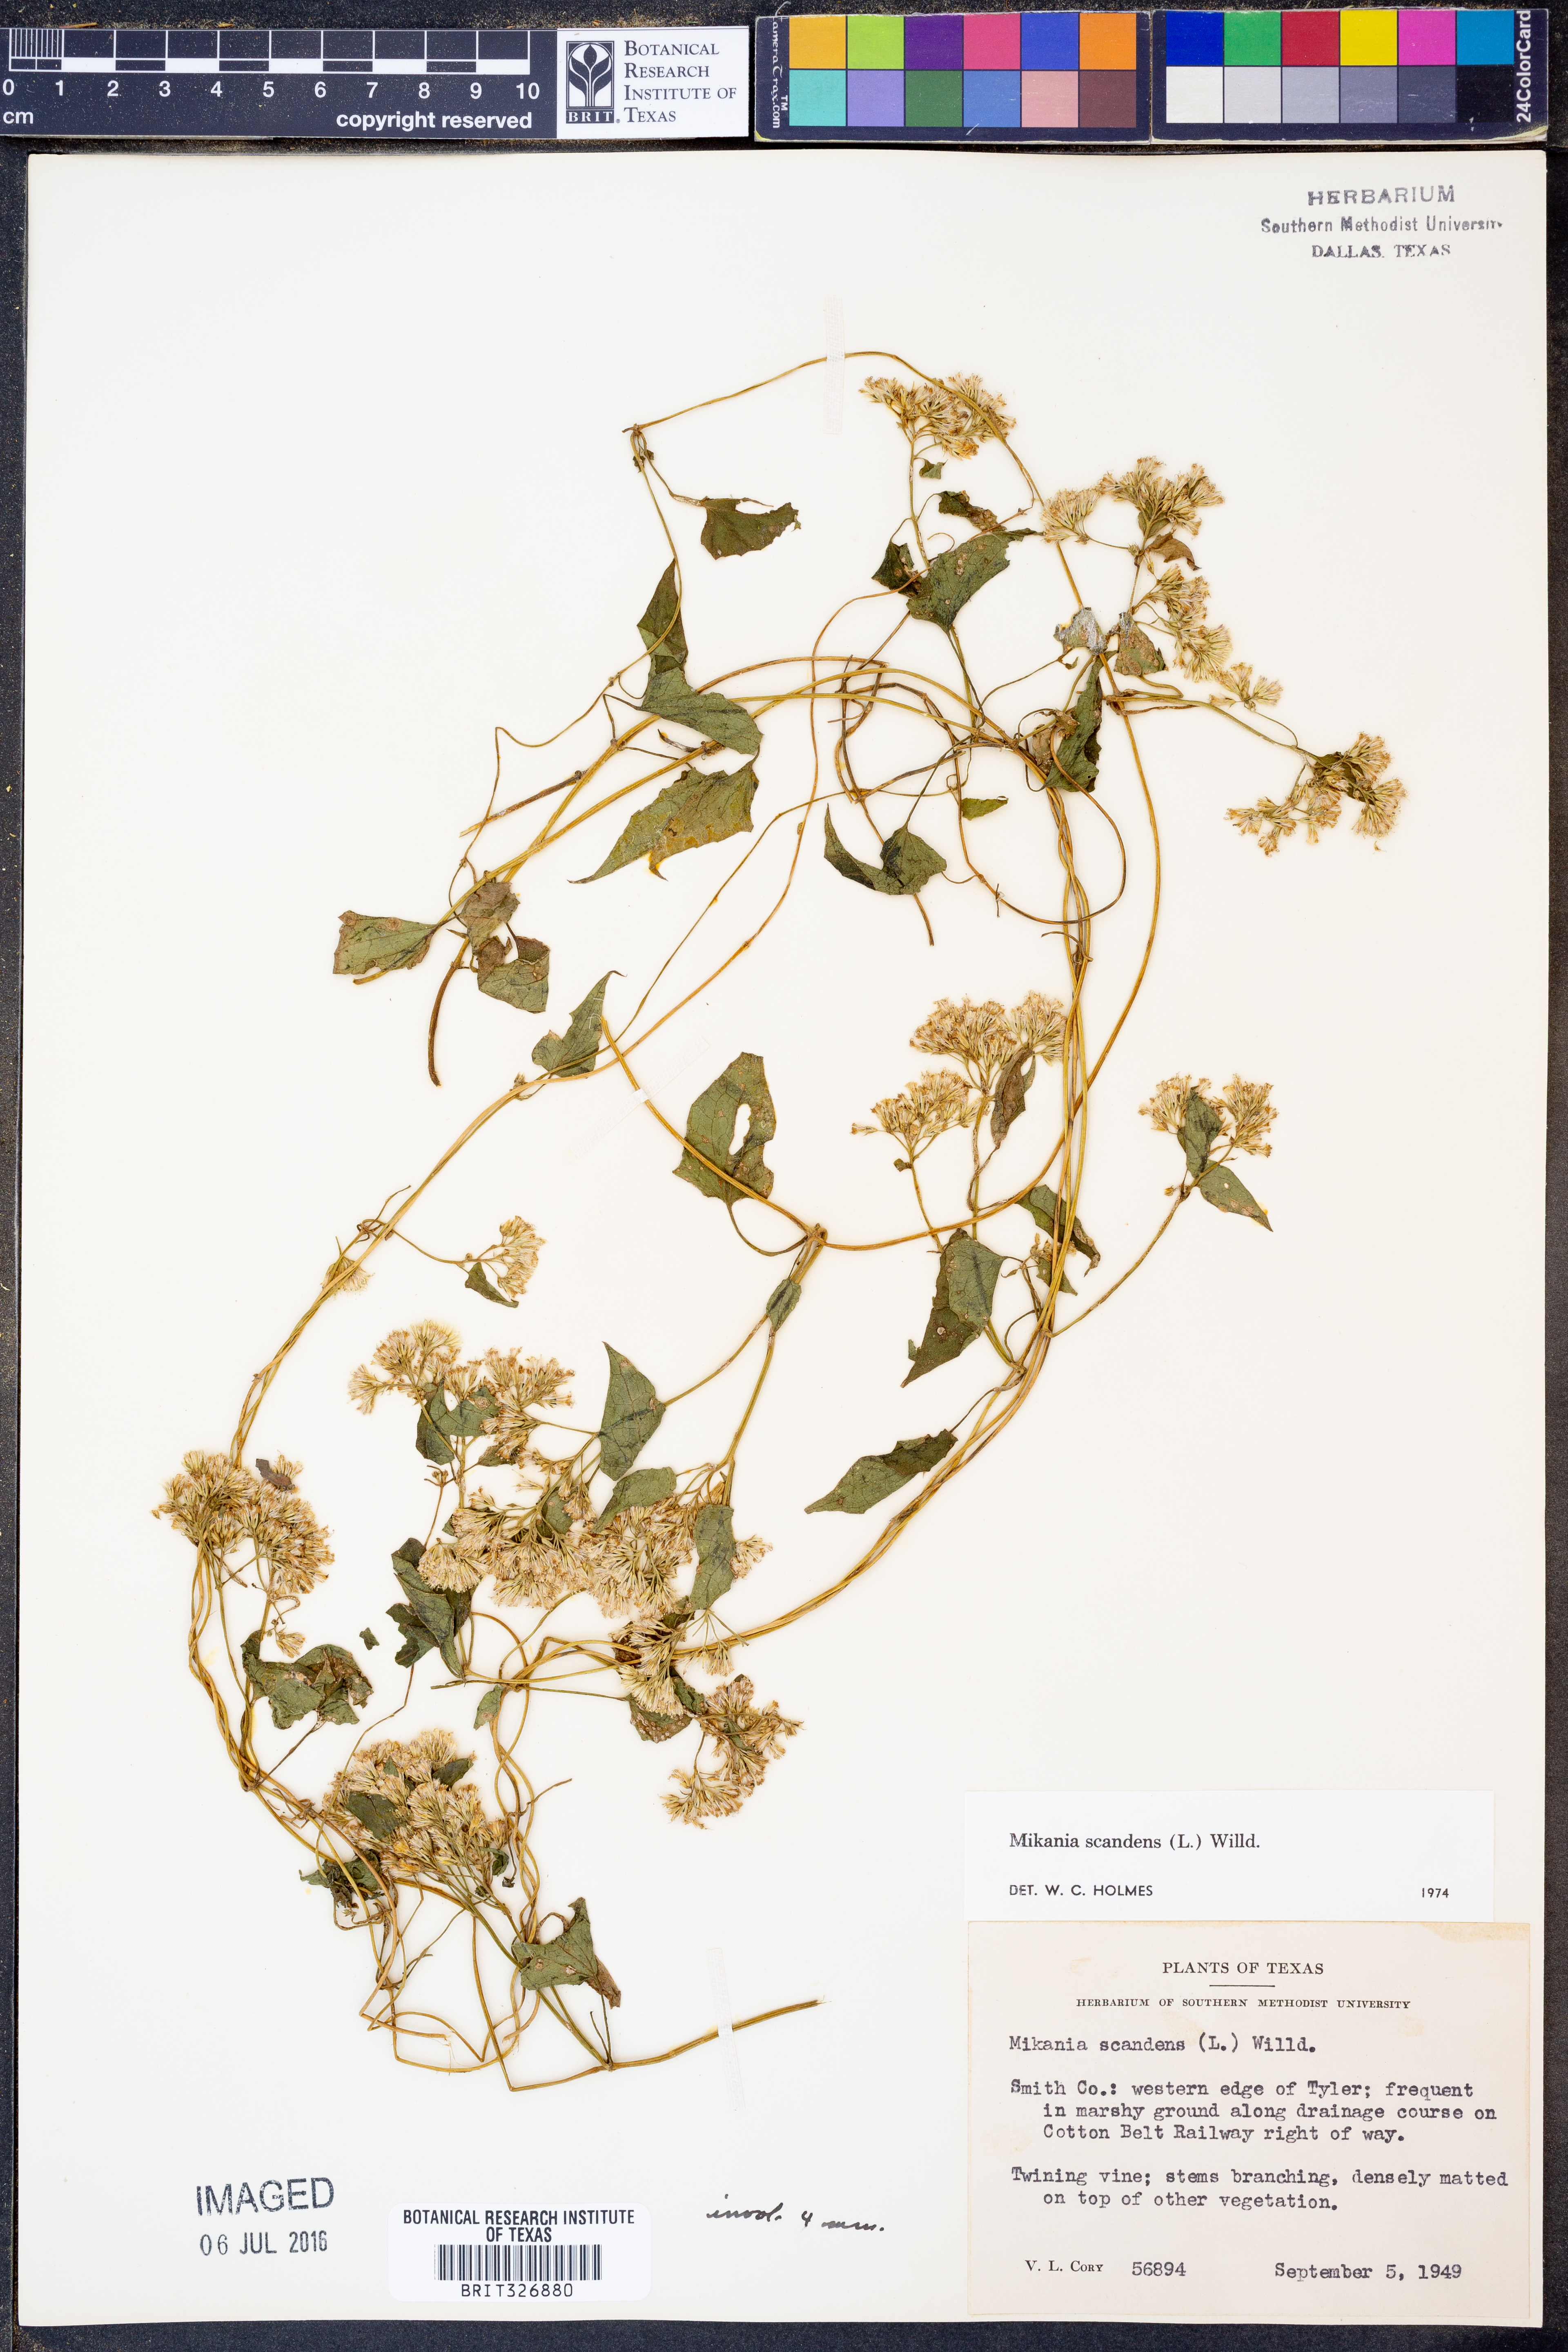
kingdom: Plantae
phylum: Tracheophyta
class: Magnoliopsida
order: Asterales
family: Asteraceae
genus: Mikania
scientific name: Mikania scandens
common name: Climbing hempvine
